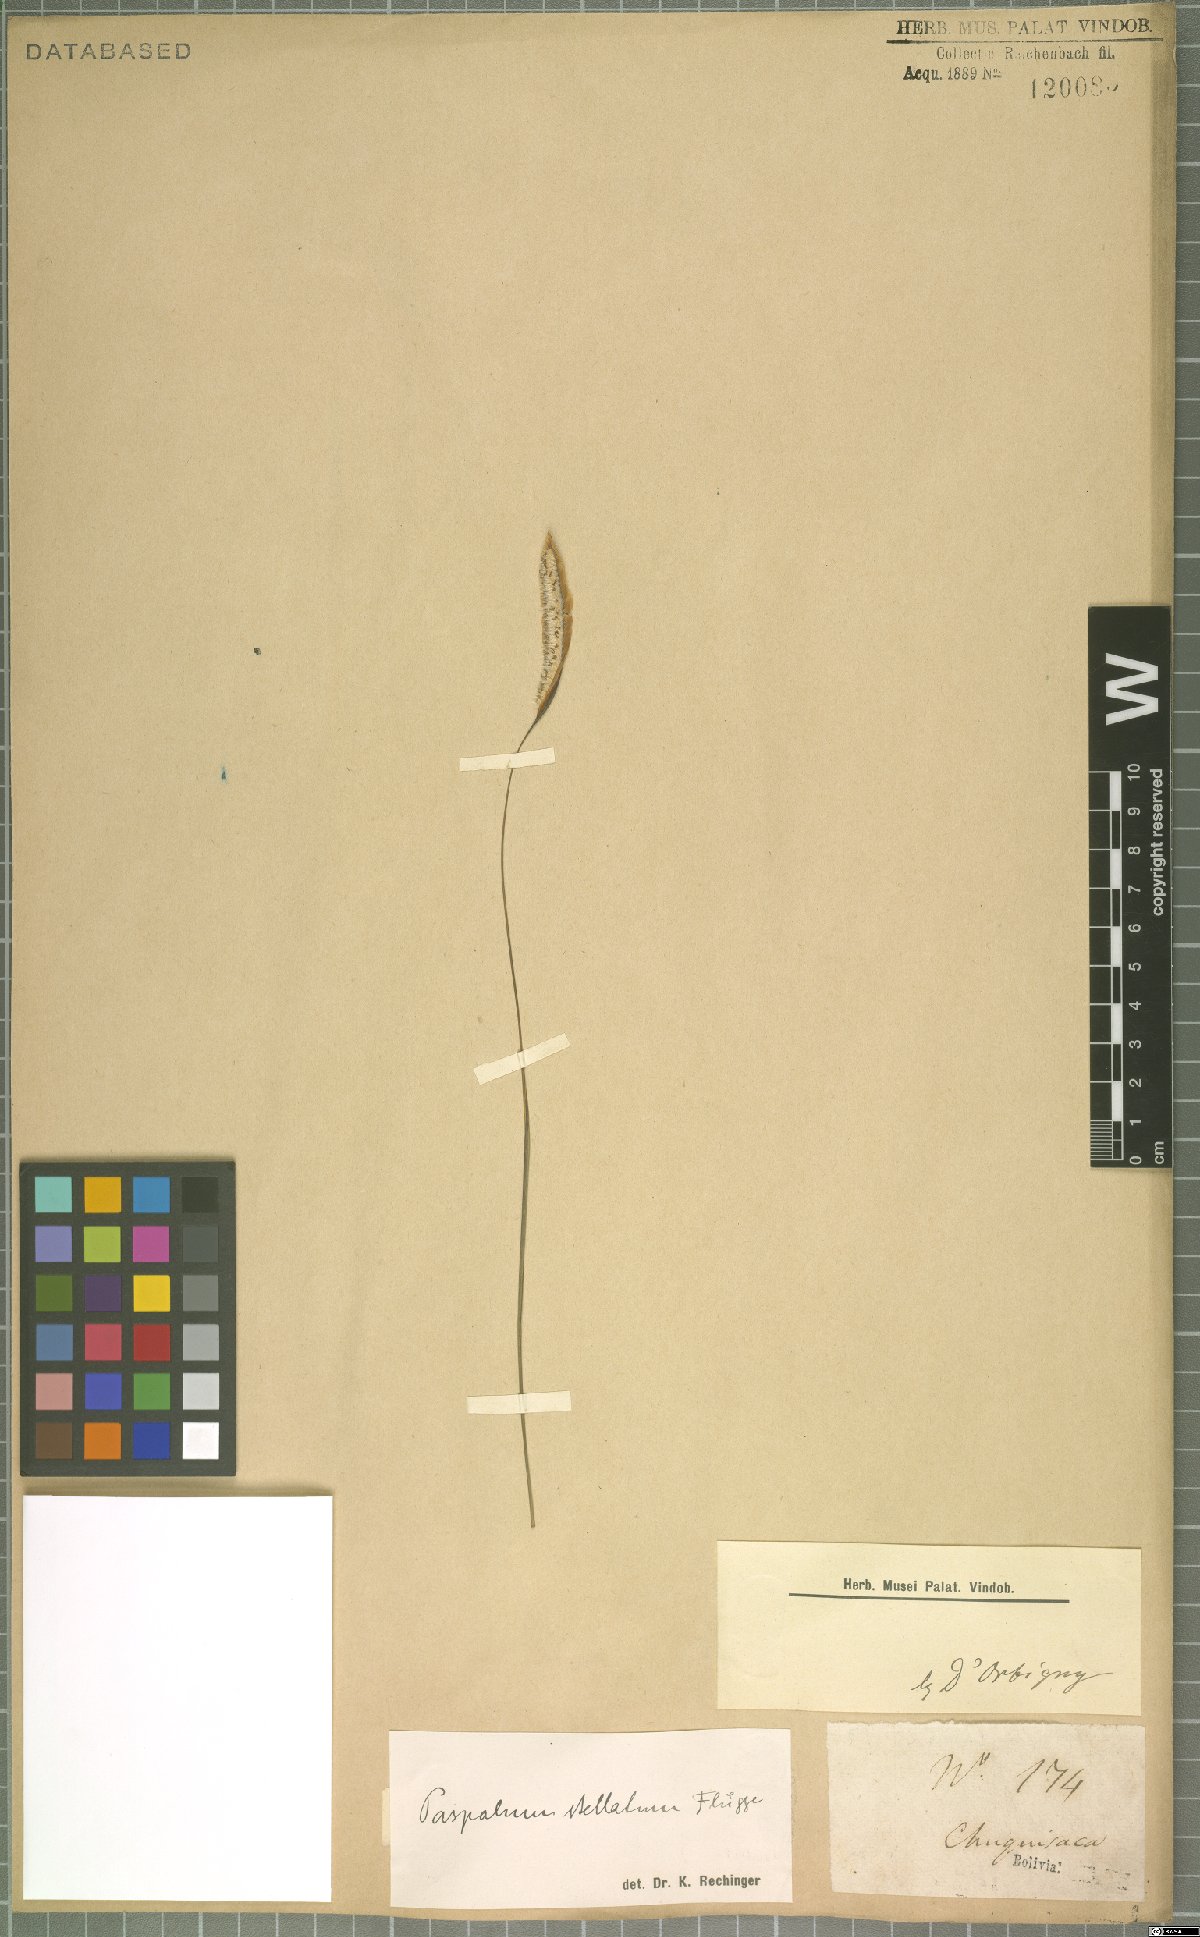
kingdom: Plantae
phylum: Tracheophyta
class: Liliopsida
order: Poales
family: Poaceae
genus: Paspalum
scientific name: Paspalum stellatum
